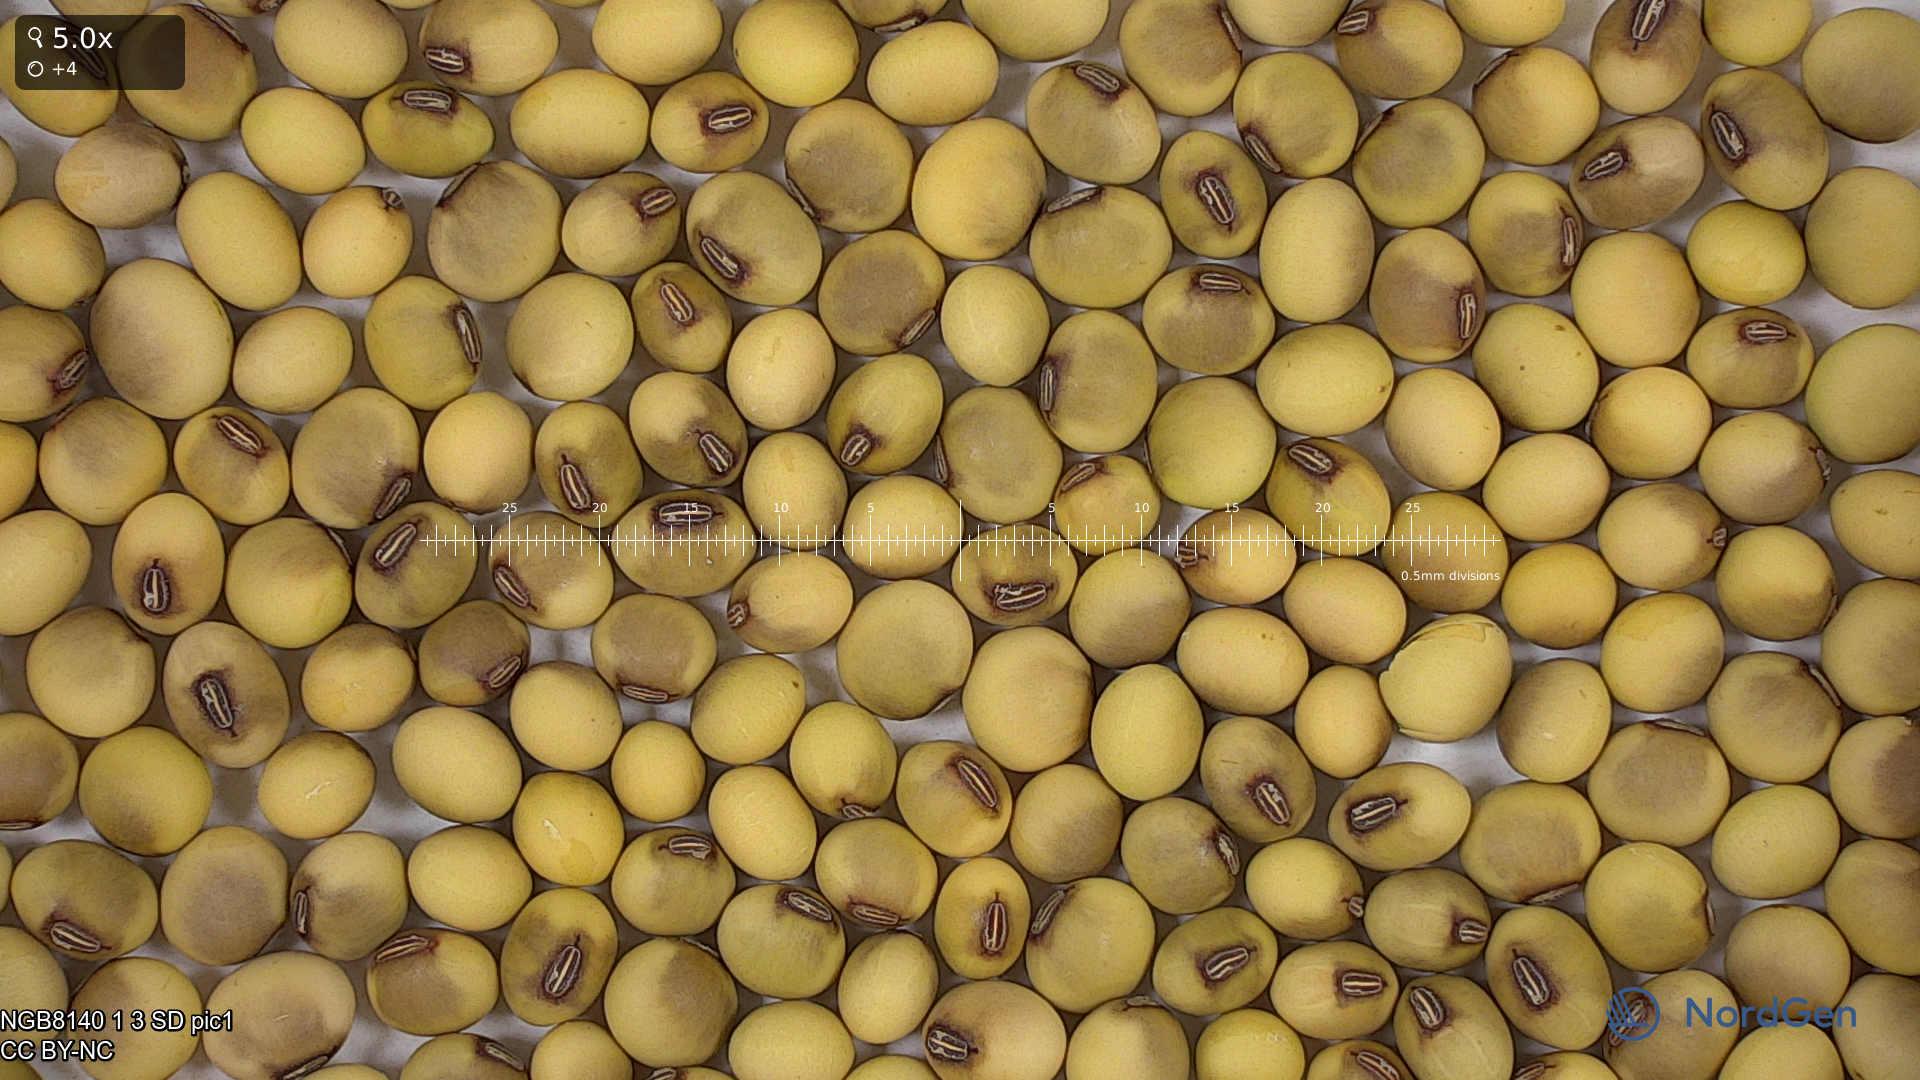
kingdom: Plantae
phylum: Tracheophyta
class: Magnoliopsida
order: Fabales
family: Fabaceae
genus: Glycine
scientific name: Glycine max
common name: Soya-bean
